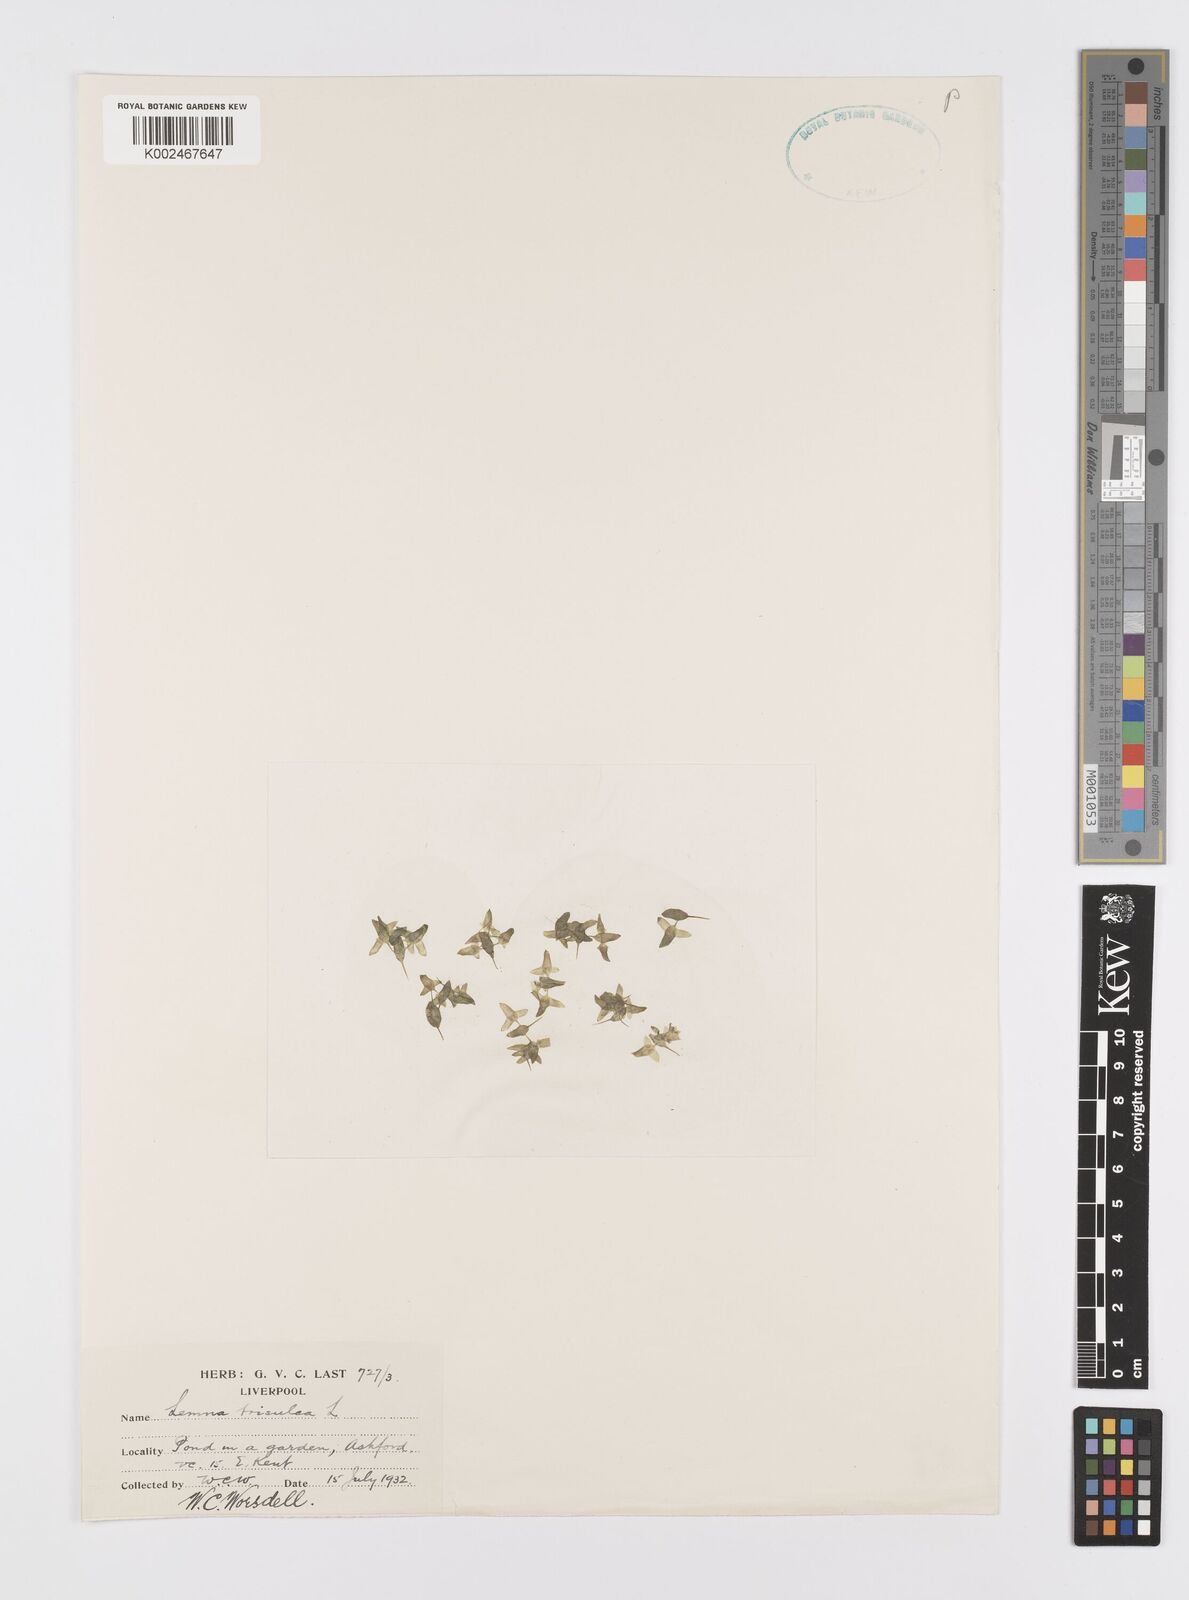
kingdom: Plantae
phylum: Tracheophyta
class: Liliopsida
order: Alismatales
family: Araceae
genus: Lemna
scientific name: Lemna trisulca
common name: Ivy-leaved duckweed
